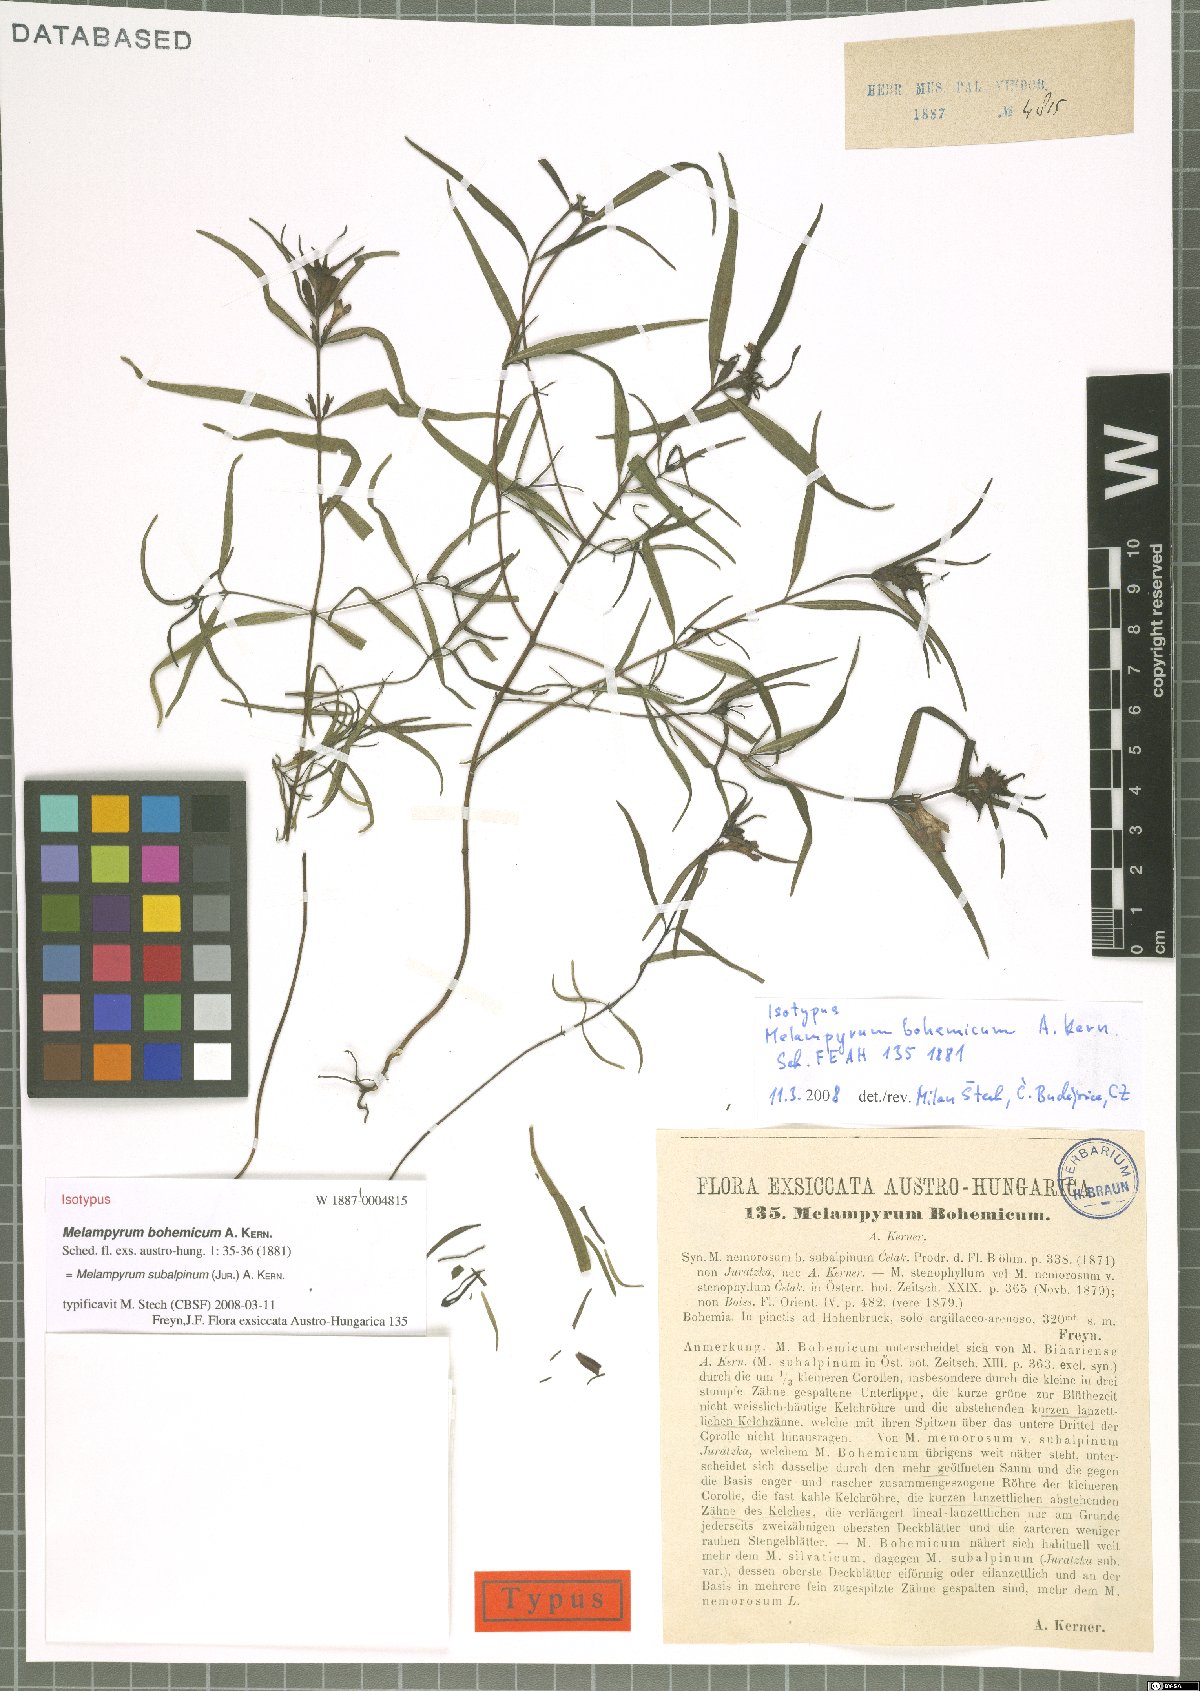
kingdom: Plantae
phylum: Tracheophyta
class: Magnoliopsida
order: Lamiales
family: Orobanchaceae
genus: Melampyrum
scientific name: Melampyrum subalpinum
